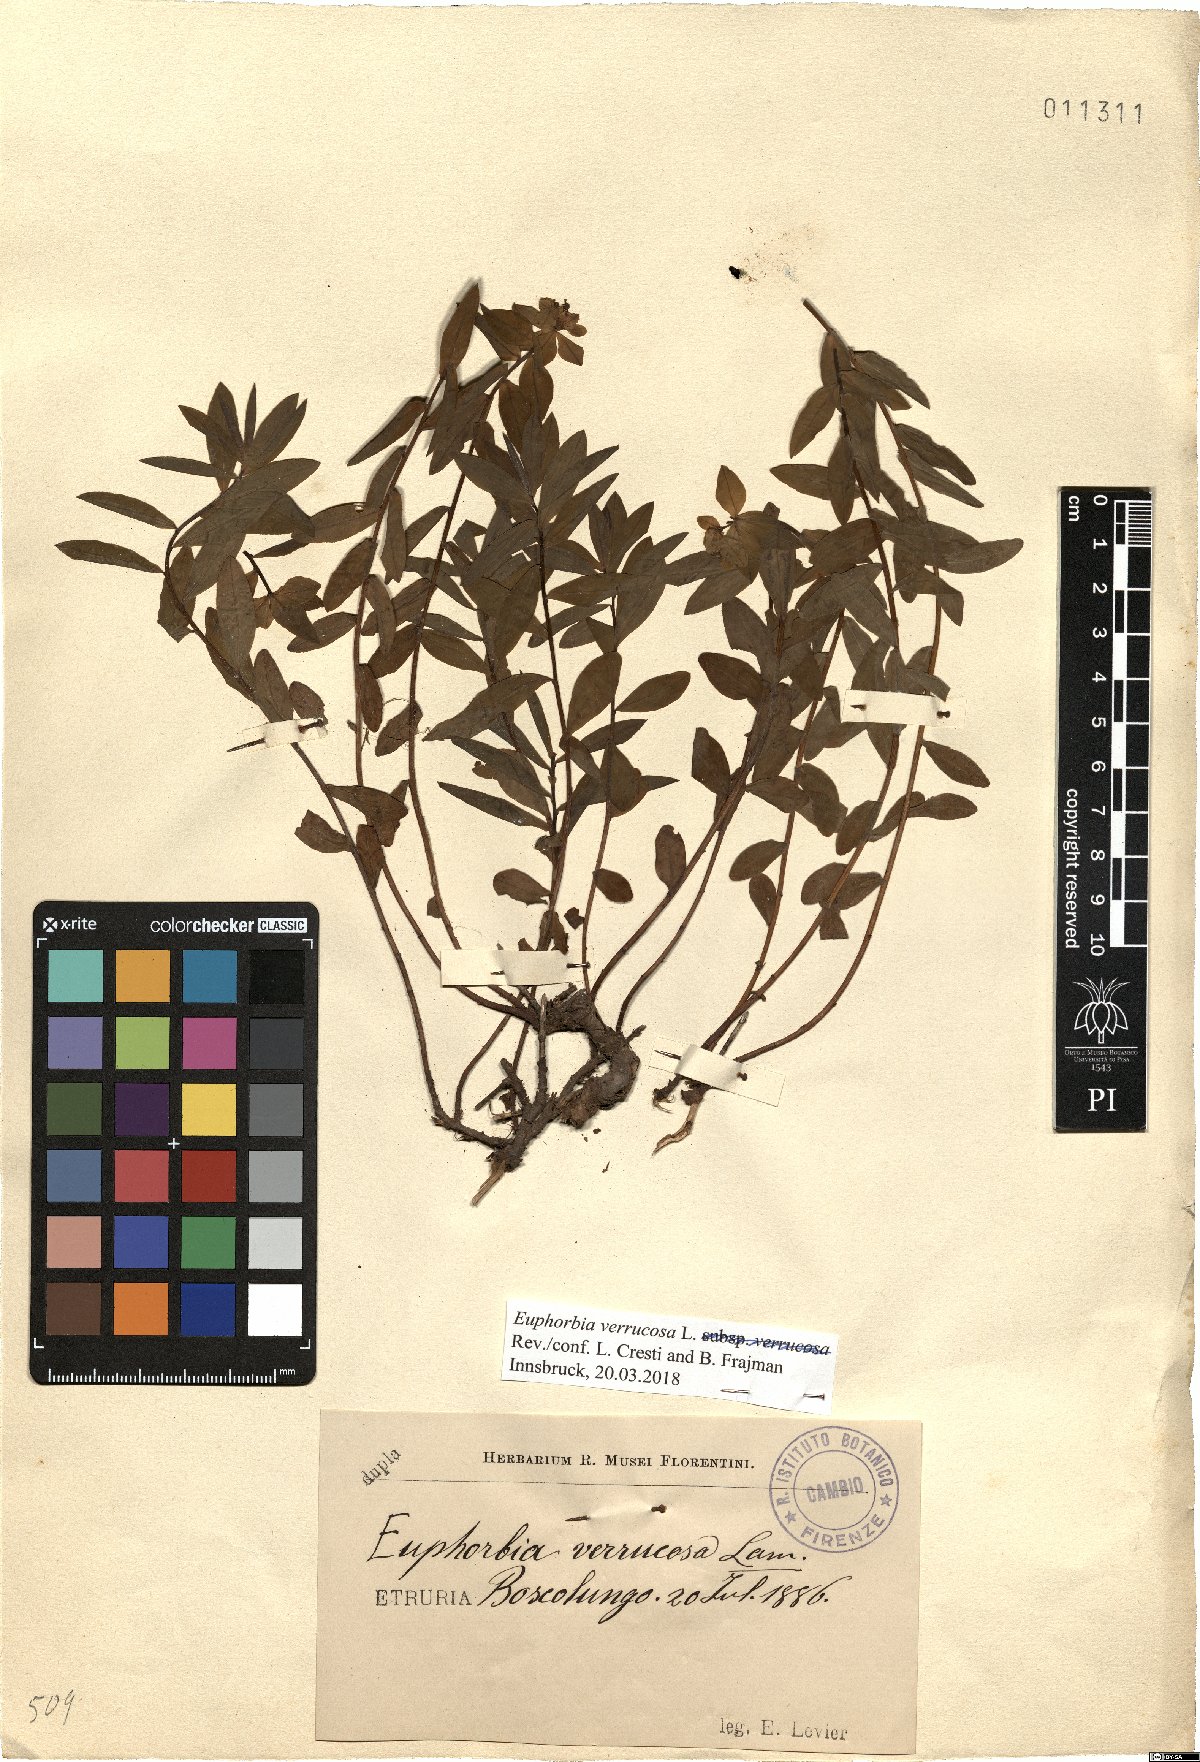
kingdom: Plantae
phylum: Tracheophyta
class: Magnoliopsida
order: Malpighiales
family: Euphorbiaceae
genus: Euphorbia
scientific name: Euphorbia verrucosa
